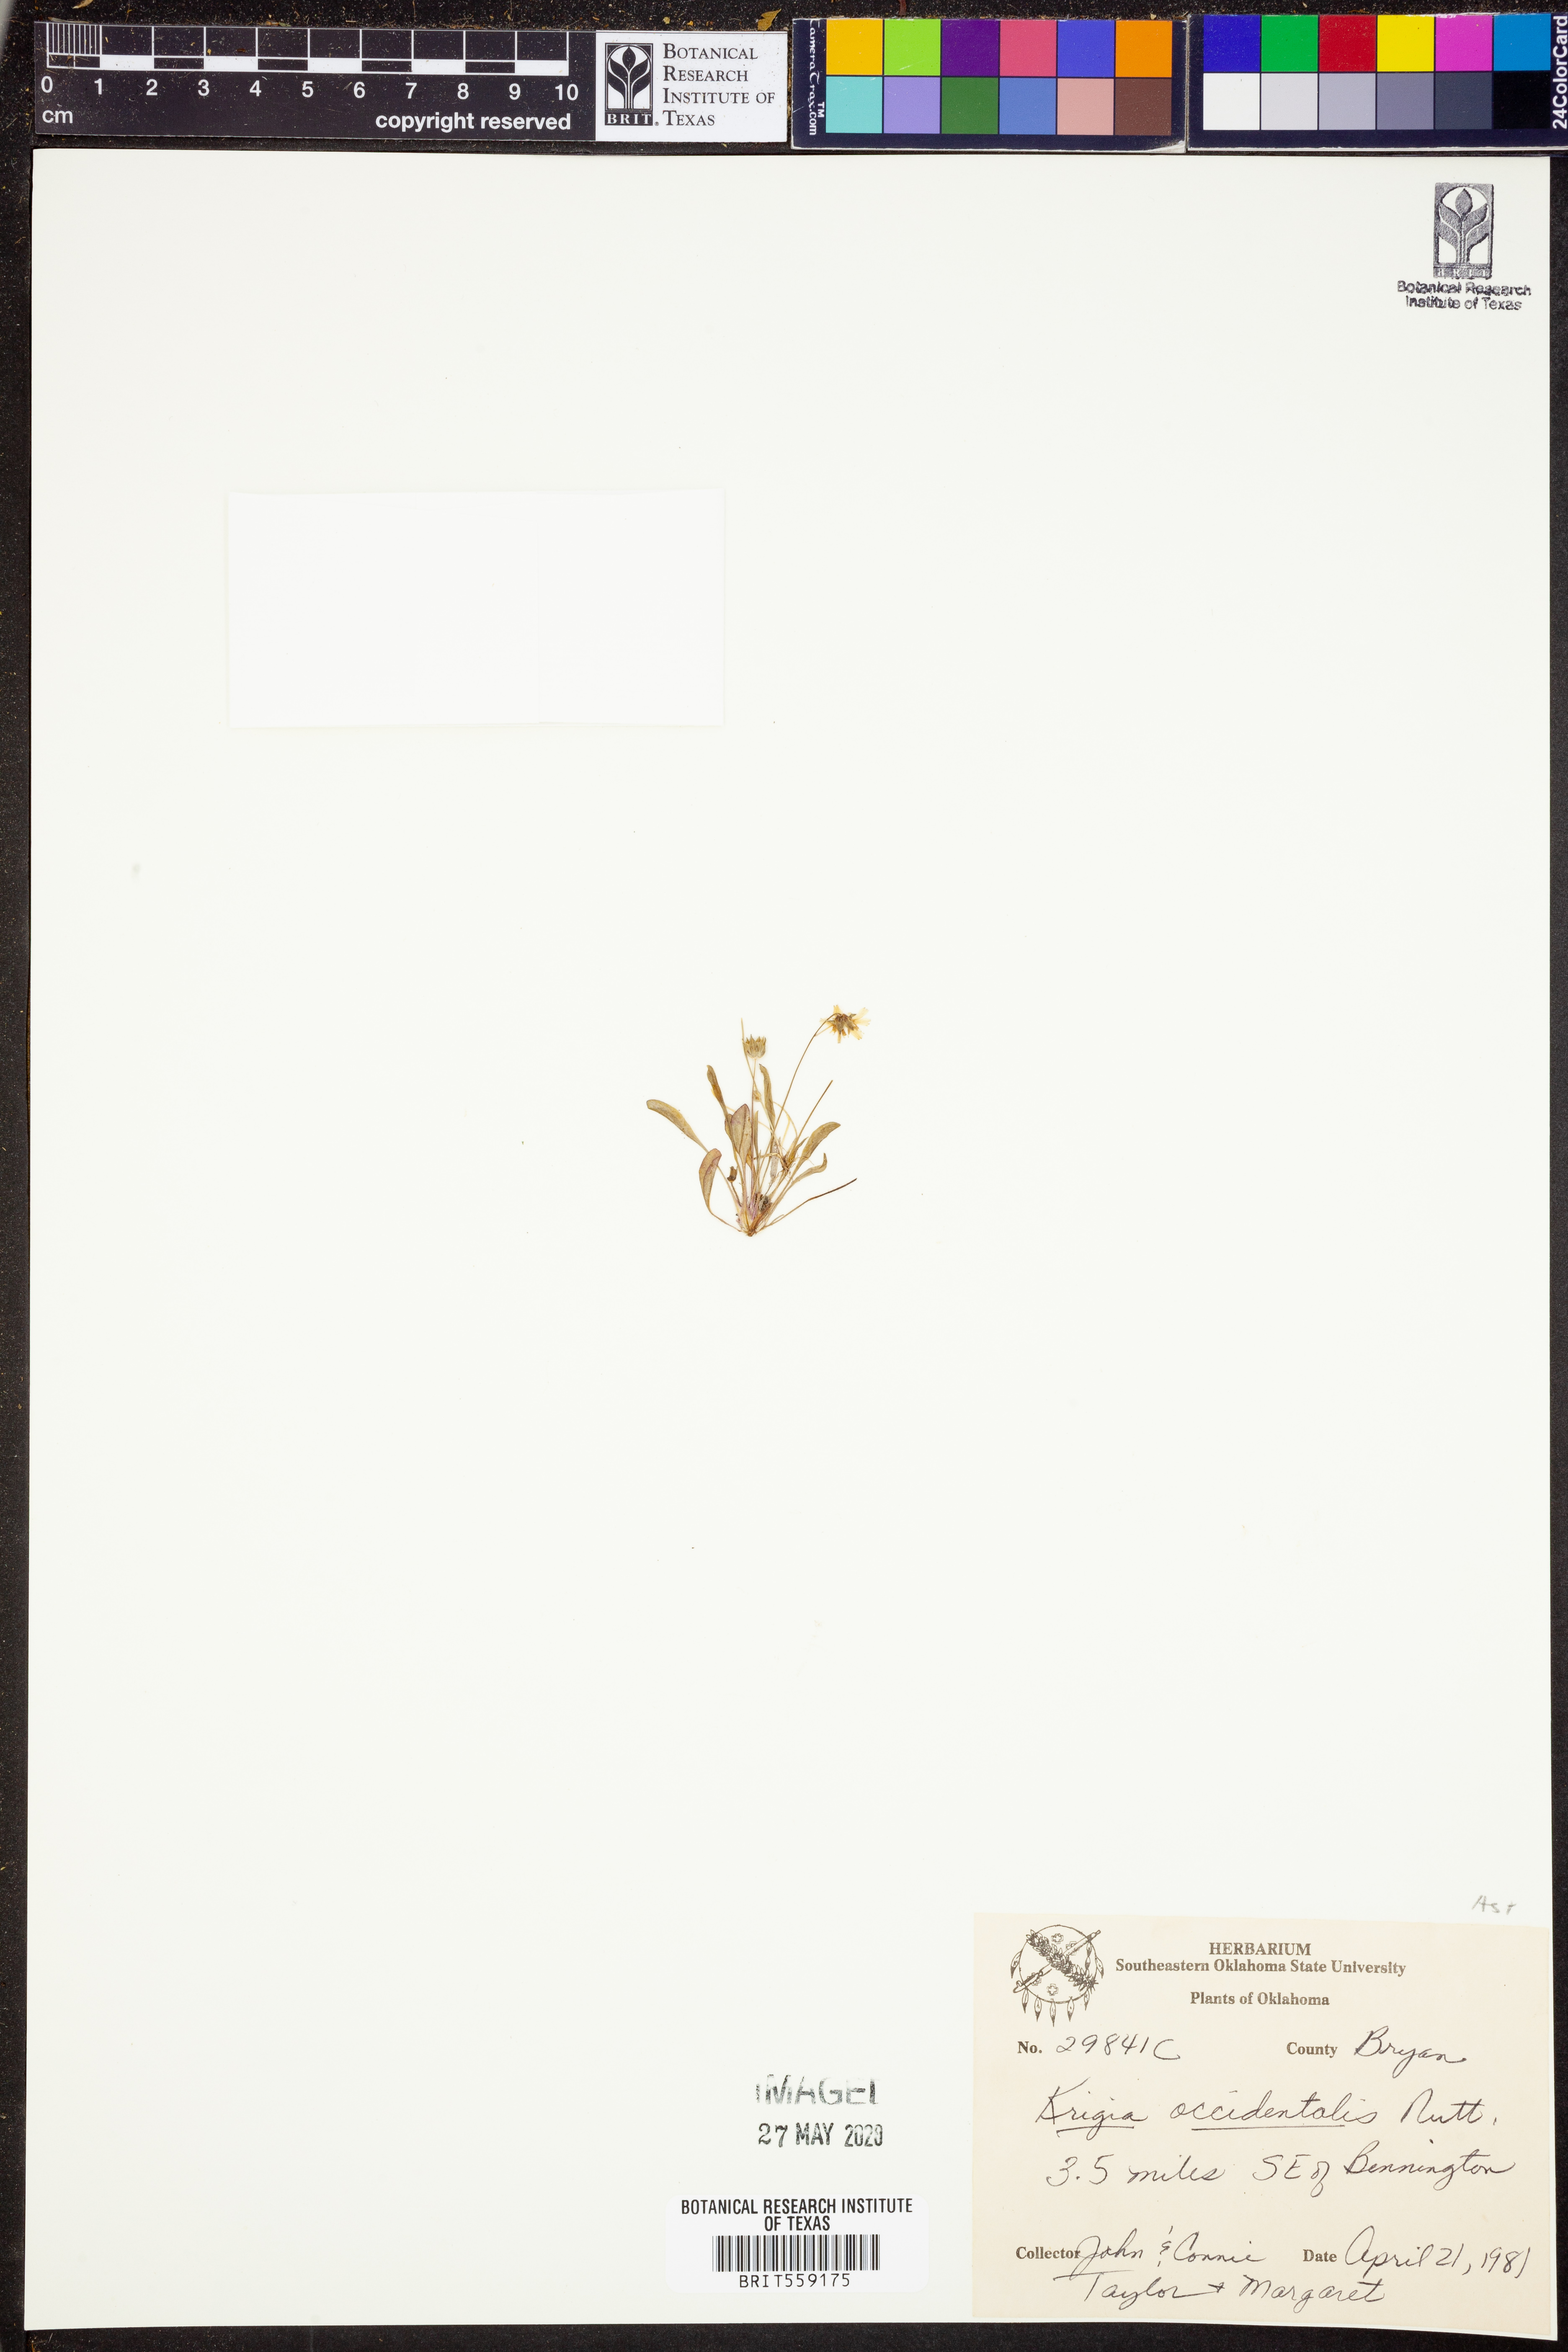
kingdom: Plantae
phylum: Tracheophyta
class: Magnoliopsida
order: Asterales
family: Asteraceae
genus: Krigia
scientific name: Krigia cespitosa
